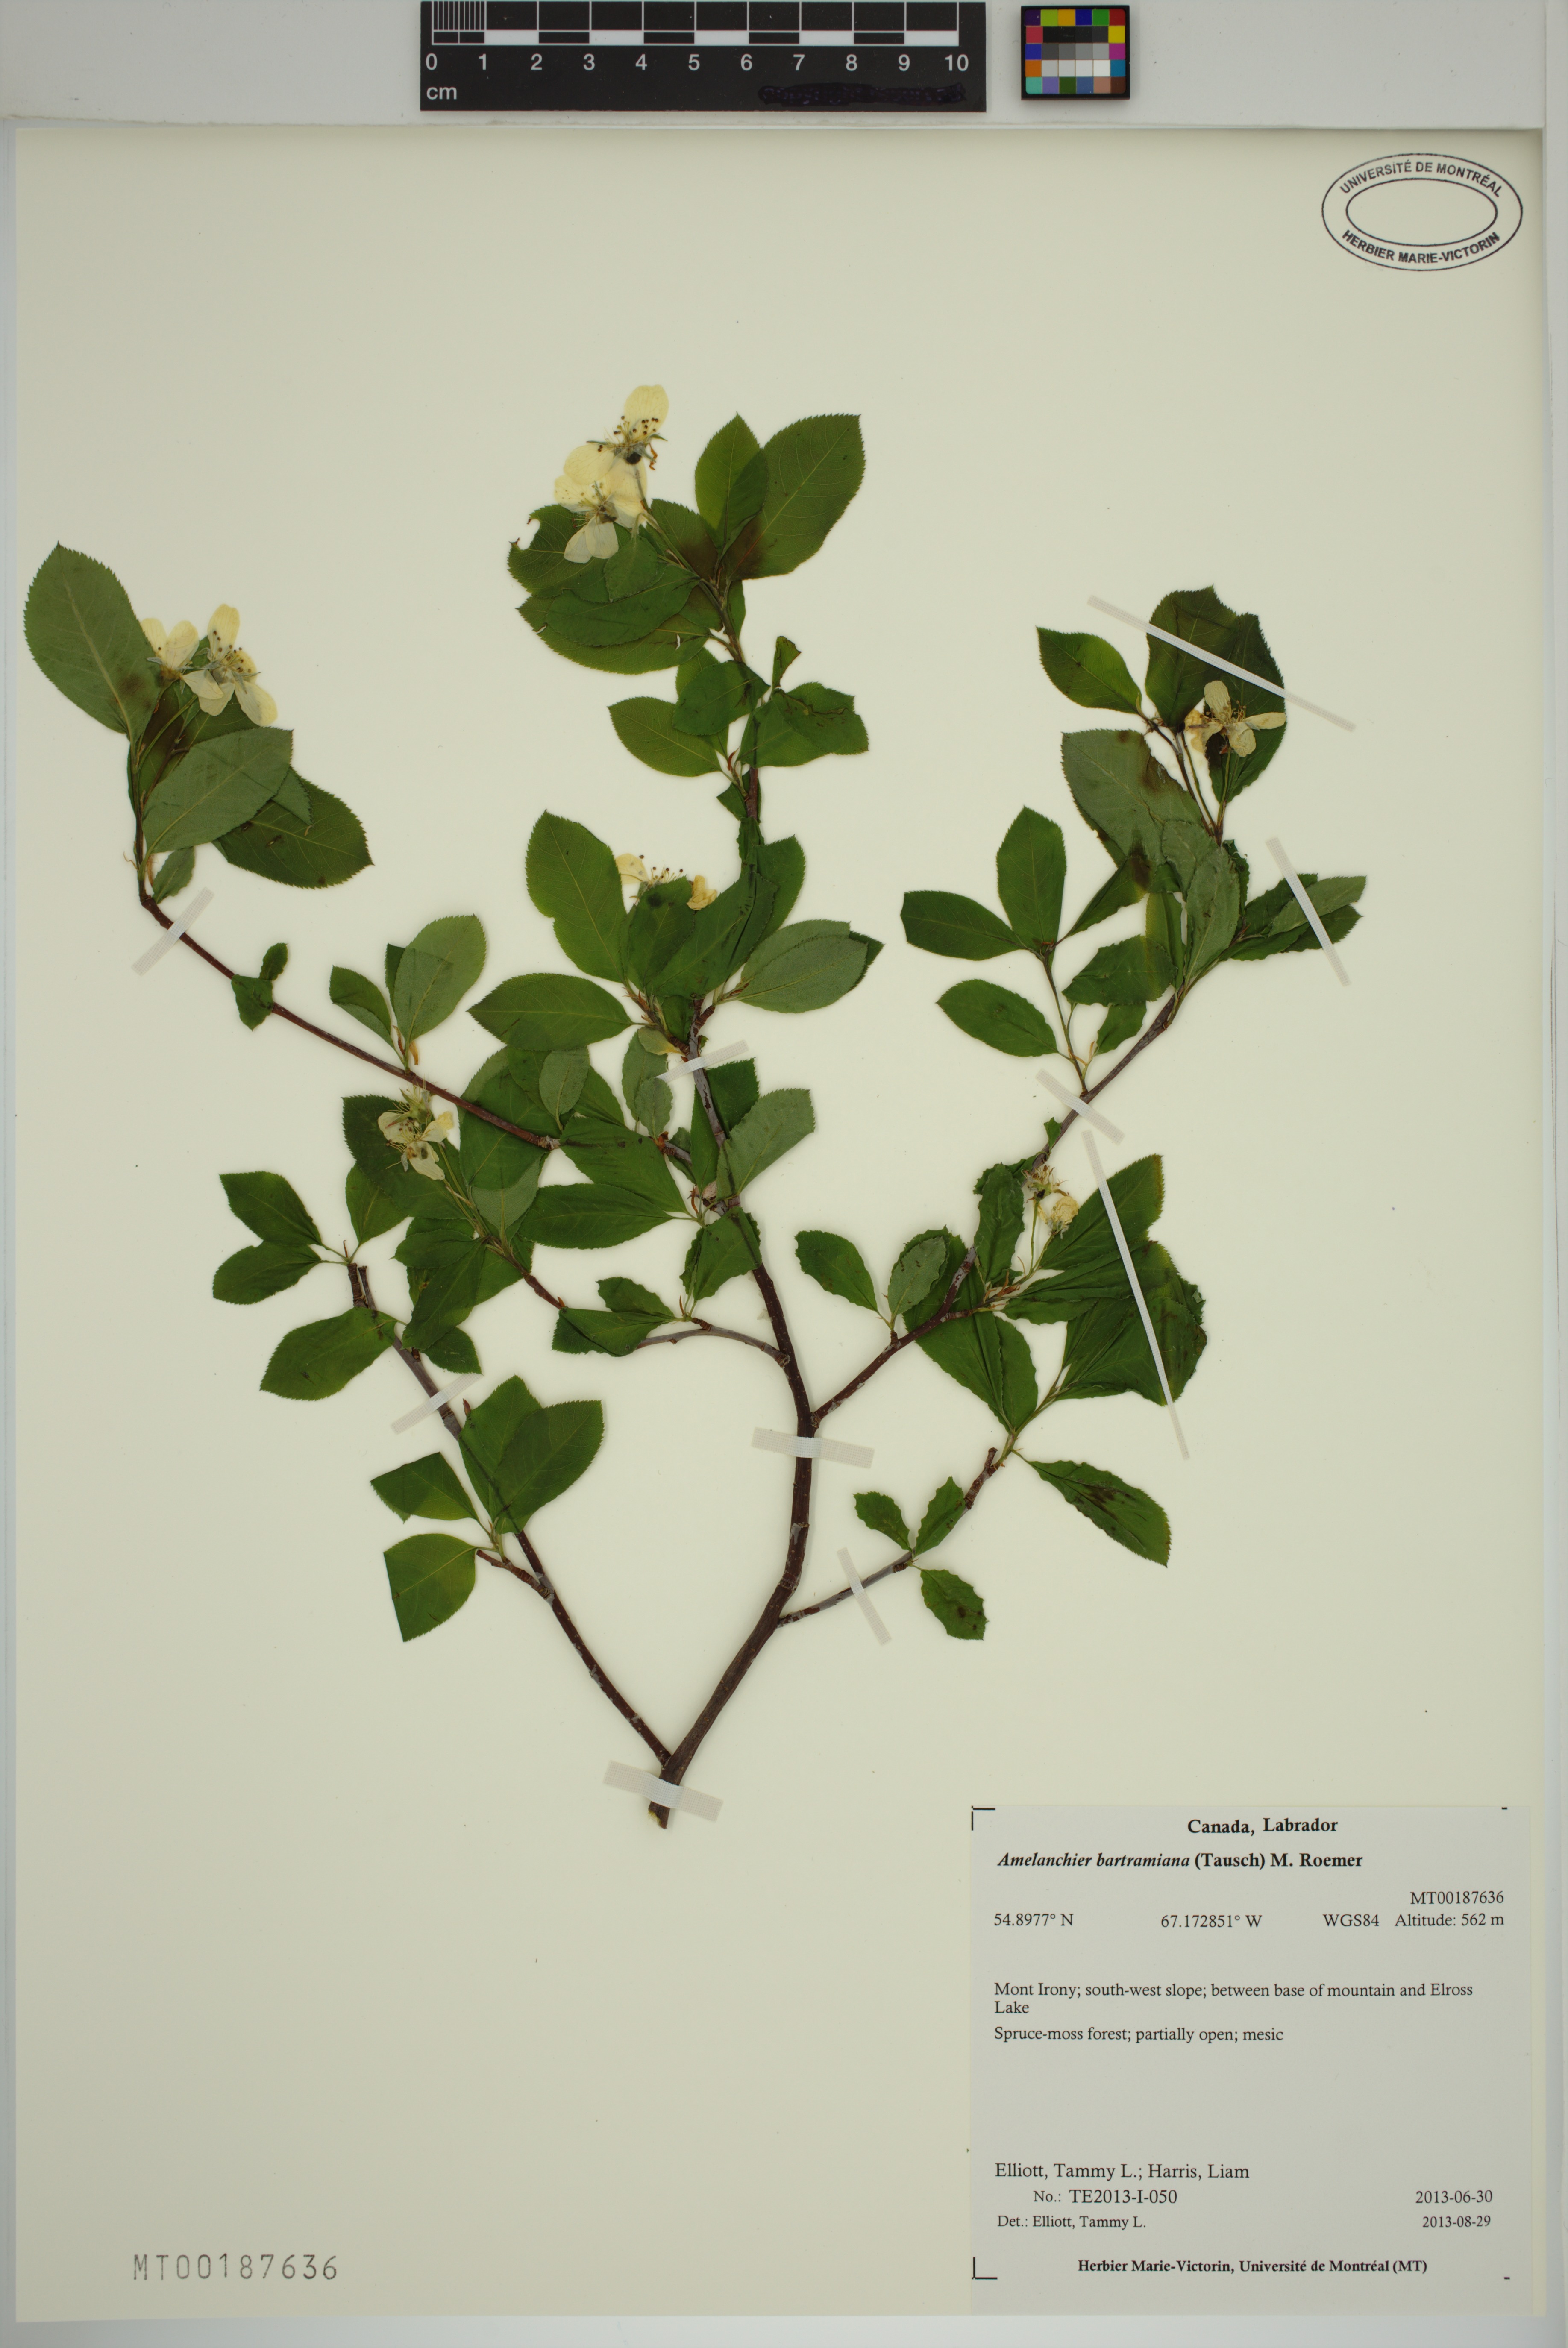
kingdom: Plantae
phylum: Tracheophyta
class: Magnoliopsida
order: Rosales
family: Rosaceae
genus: Amelanchier
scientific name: Amelanchier bartramiana
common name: Mountain serviceberry
